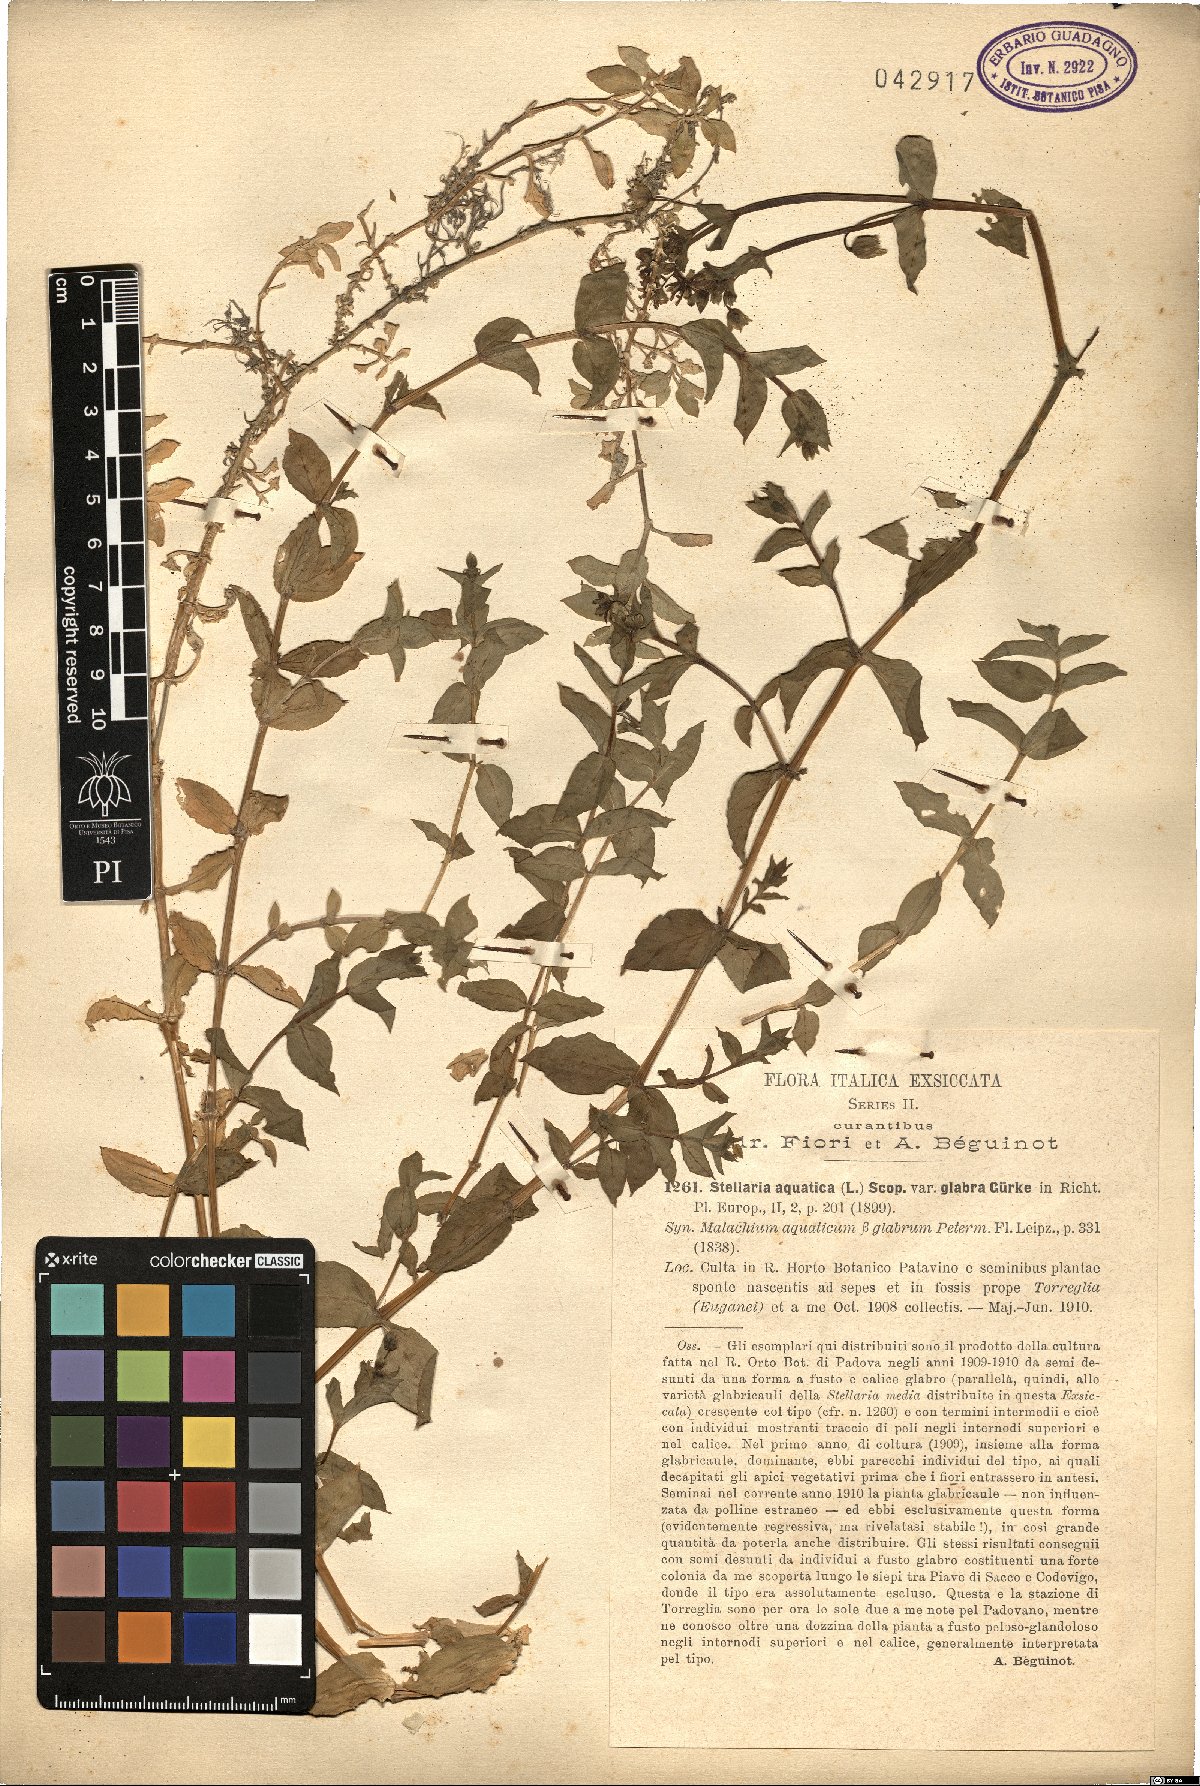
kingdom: Plantae
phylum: Tracheophyta
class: Magnoliopsida
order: Caryophyllales
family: Caryophyllaceae
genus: Stellaria
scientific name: Stellaria aquatica
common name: Water chickweed
